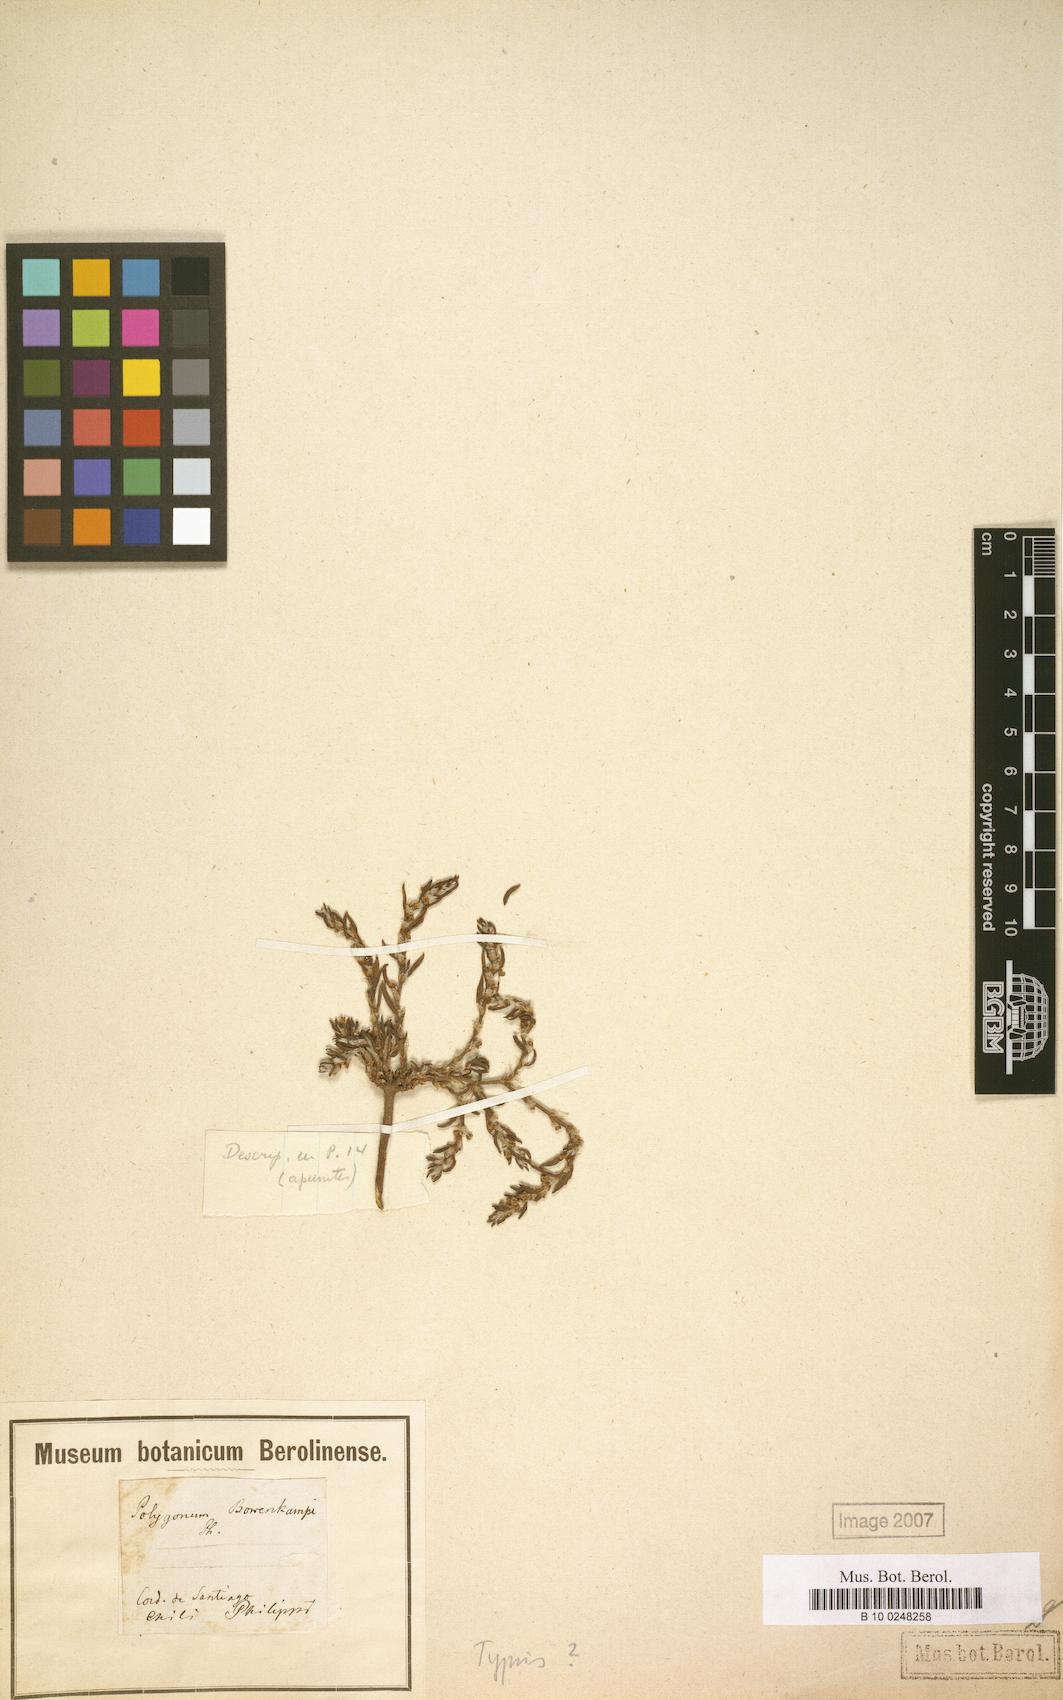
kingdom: Plantae
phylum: Tracheophyta
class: Magnoliopsida
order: Caryophyllales
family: Polygonaceae
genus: Polygonum
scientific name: Polygonum bowenkampii
